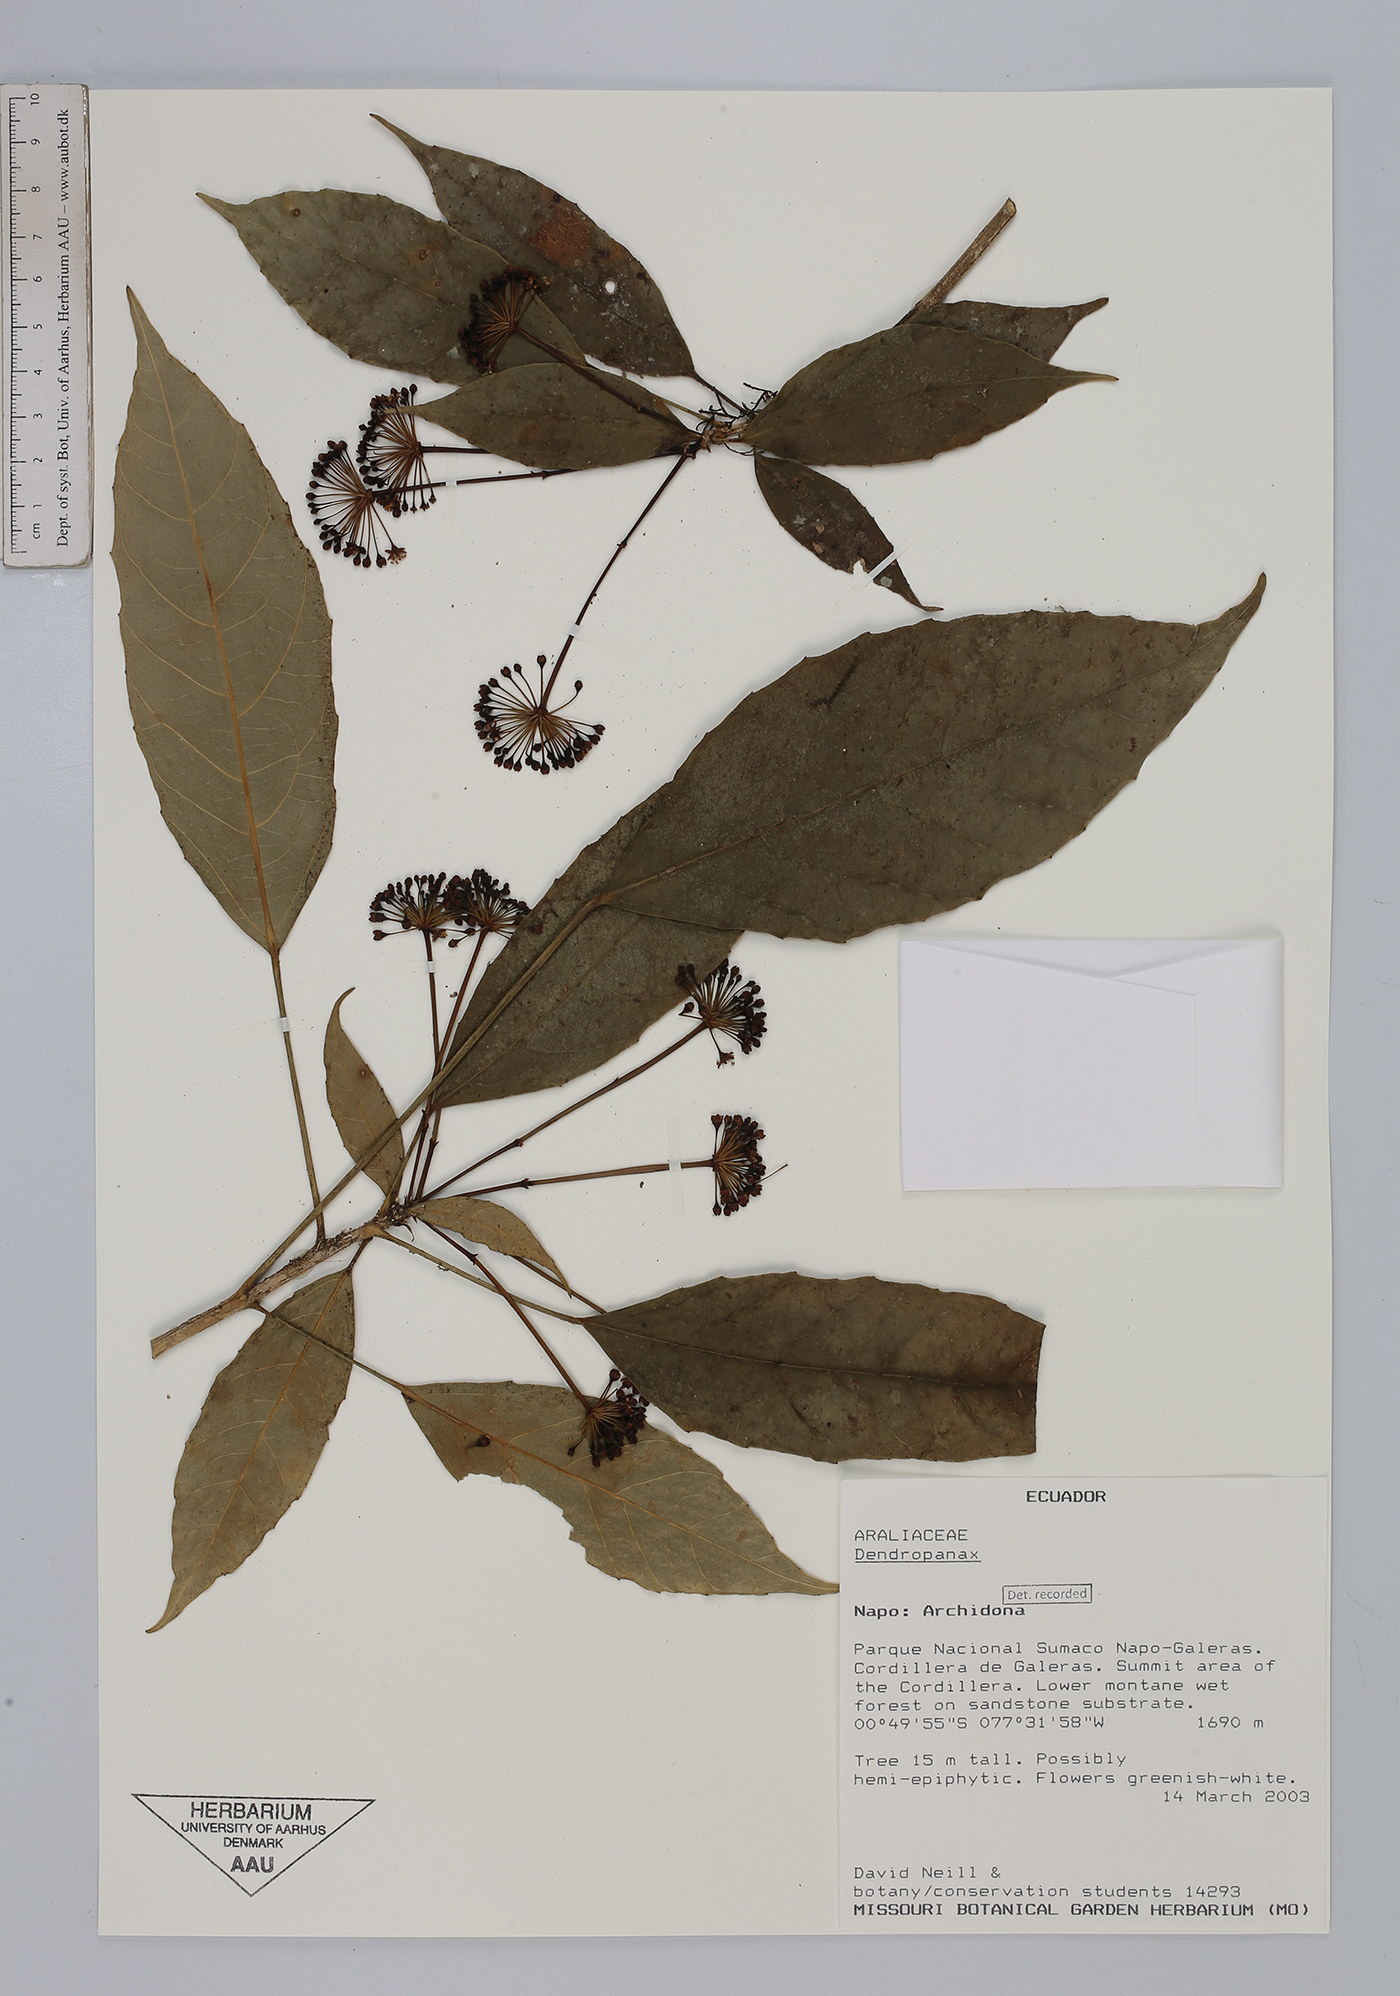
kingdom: Plantae
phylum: Tracheophyta
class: Magnoliopsida
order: Apiales
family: Araliaceae
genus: Dendropanax
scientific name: Dendropanax
